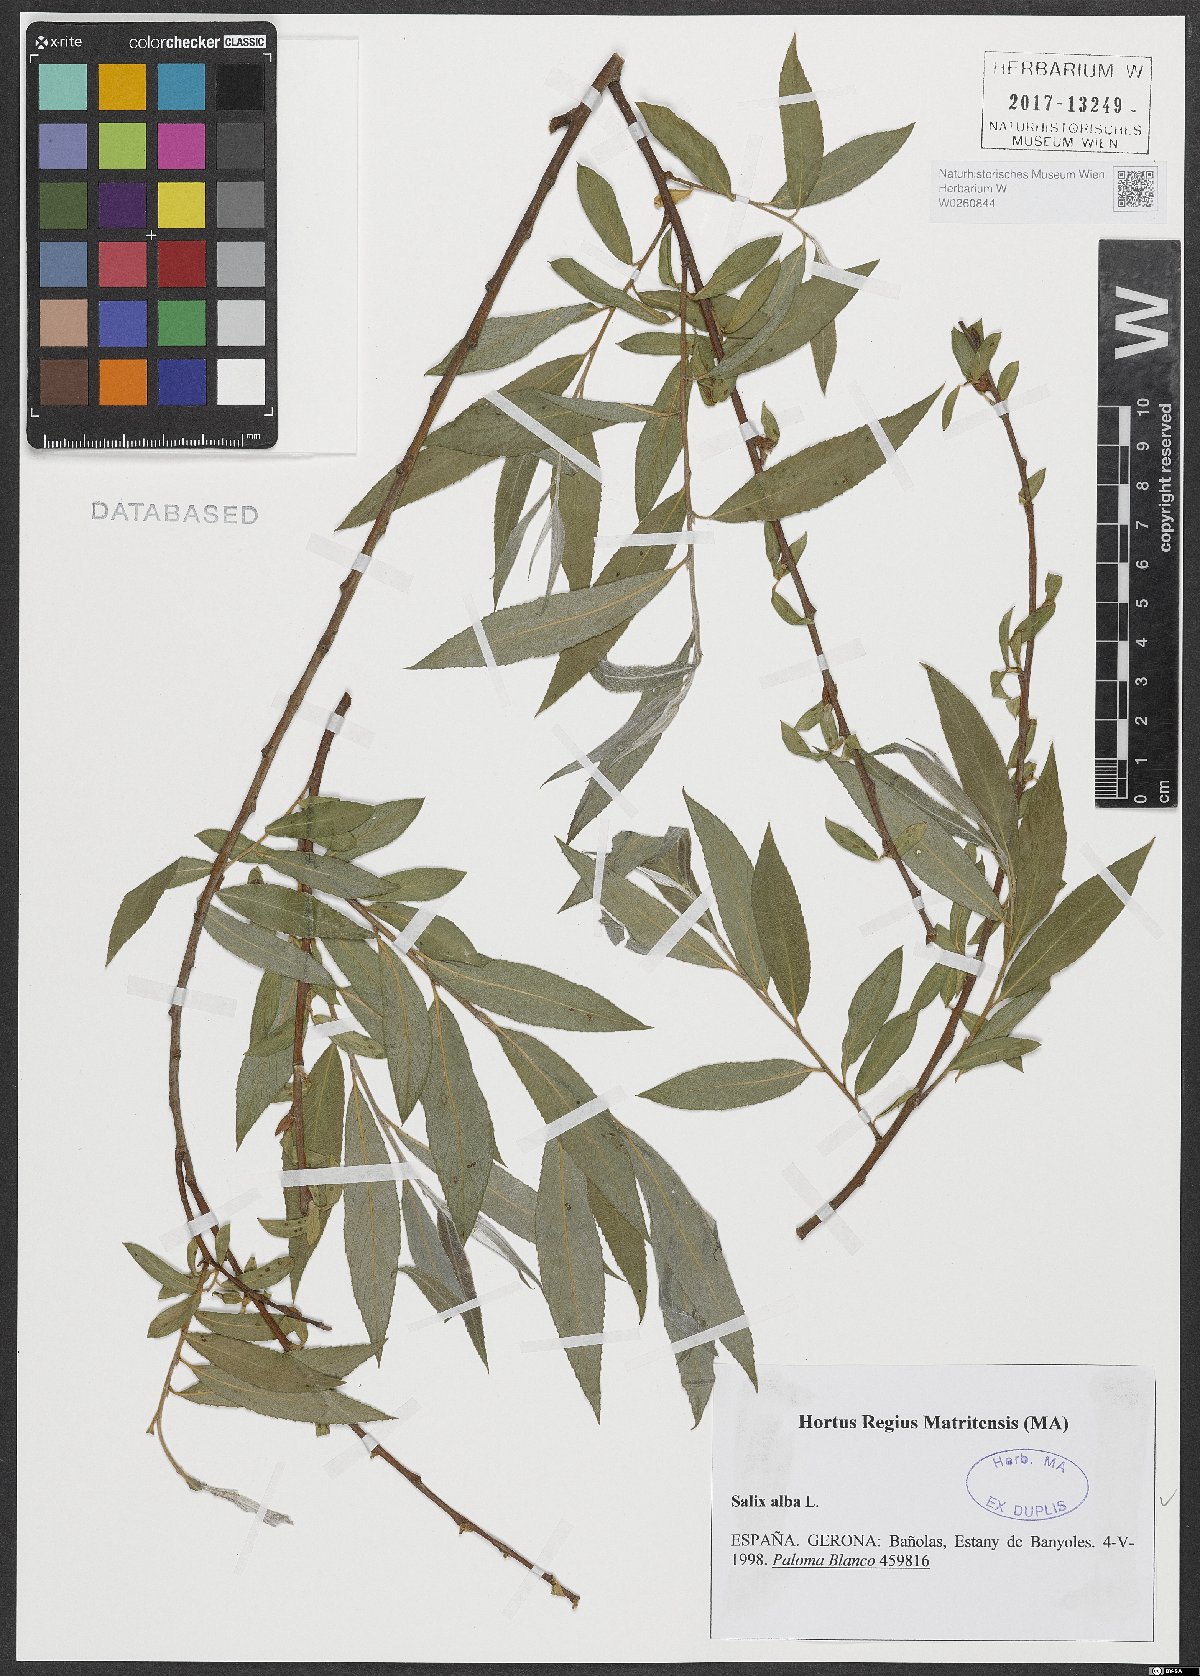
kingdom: Plantae
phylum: Tracheophyta
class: Magnoliopsida
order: Malpighiales
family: Salicaceae
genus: Salix
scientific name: Salix alba
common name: White willow
